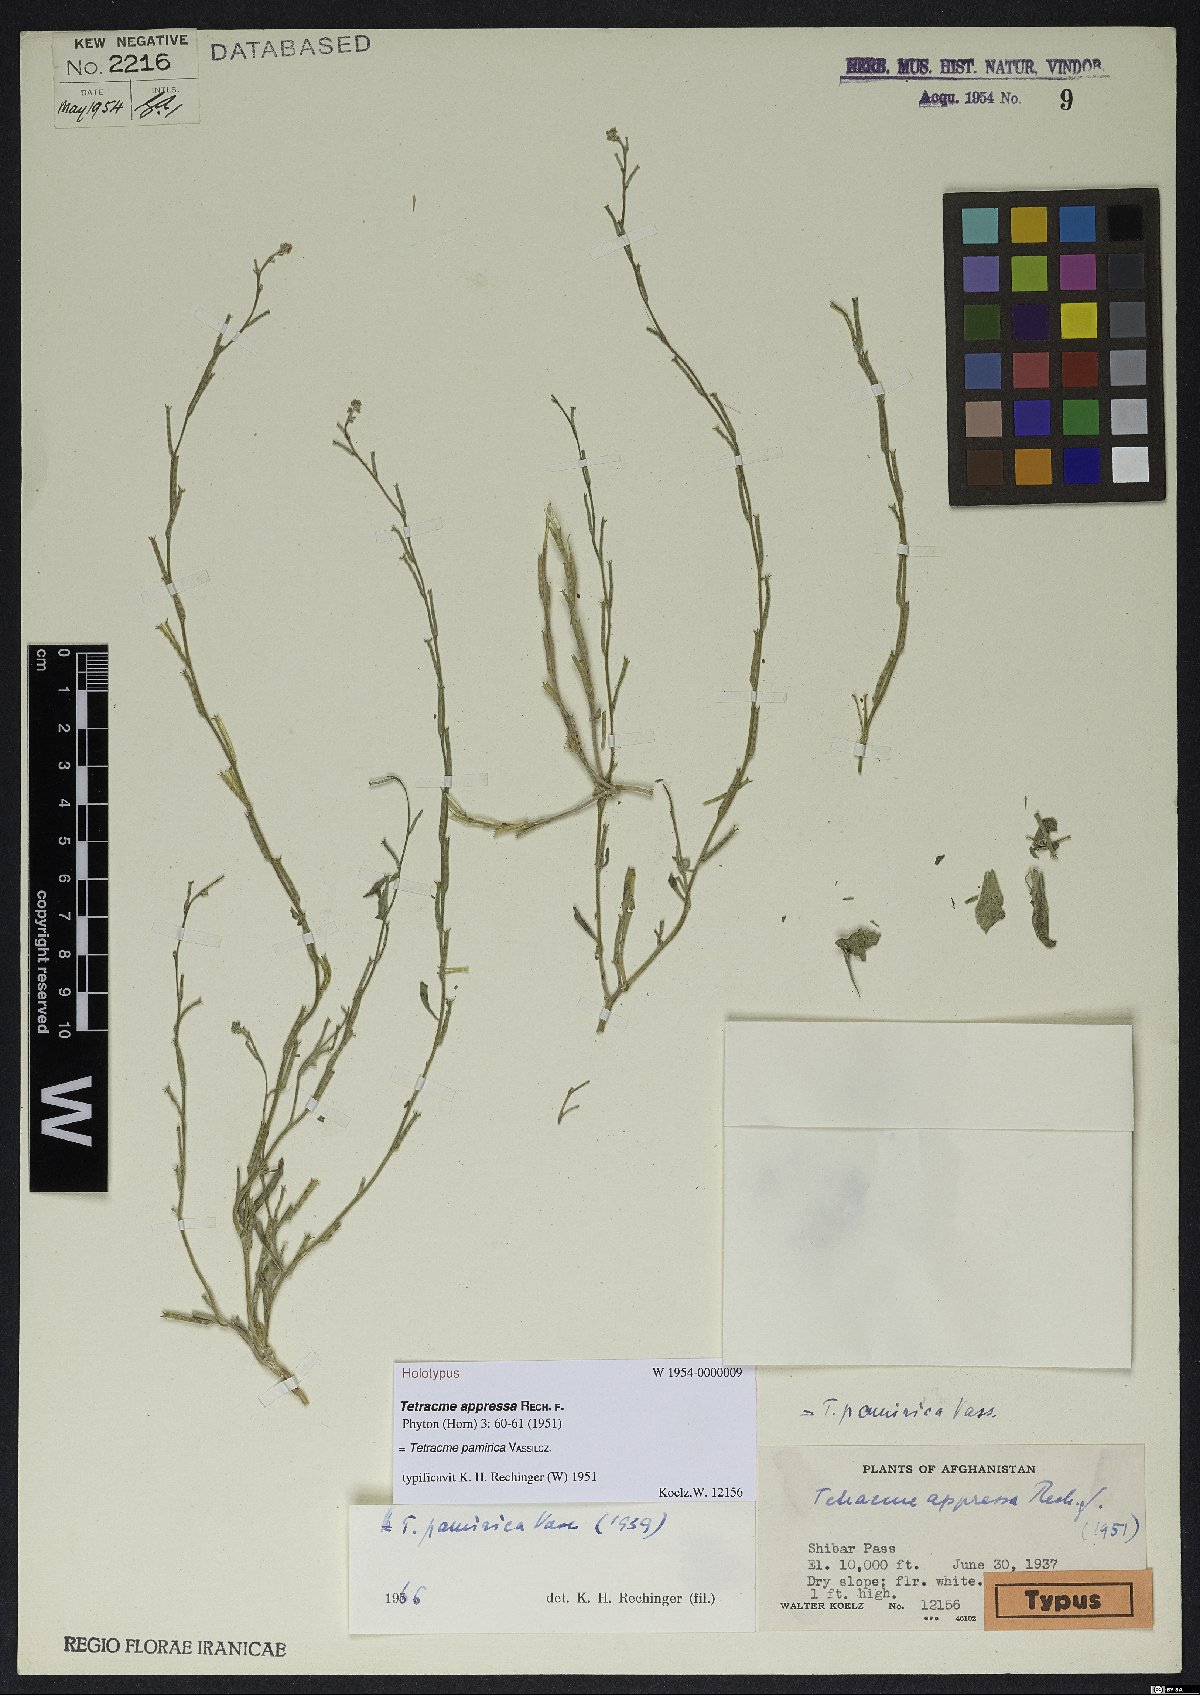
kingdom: Plantae
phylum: Tracheophyta
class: Magnoliopsida
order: Brassicales
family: Brassicaceae
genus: Tetracme
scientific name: Tetracme pamirica
